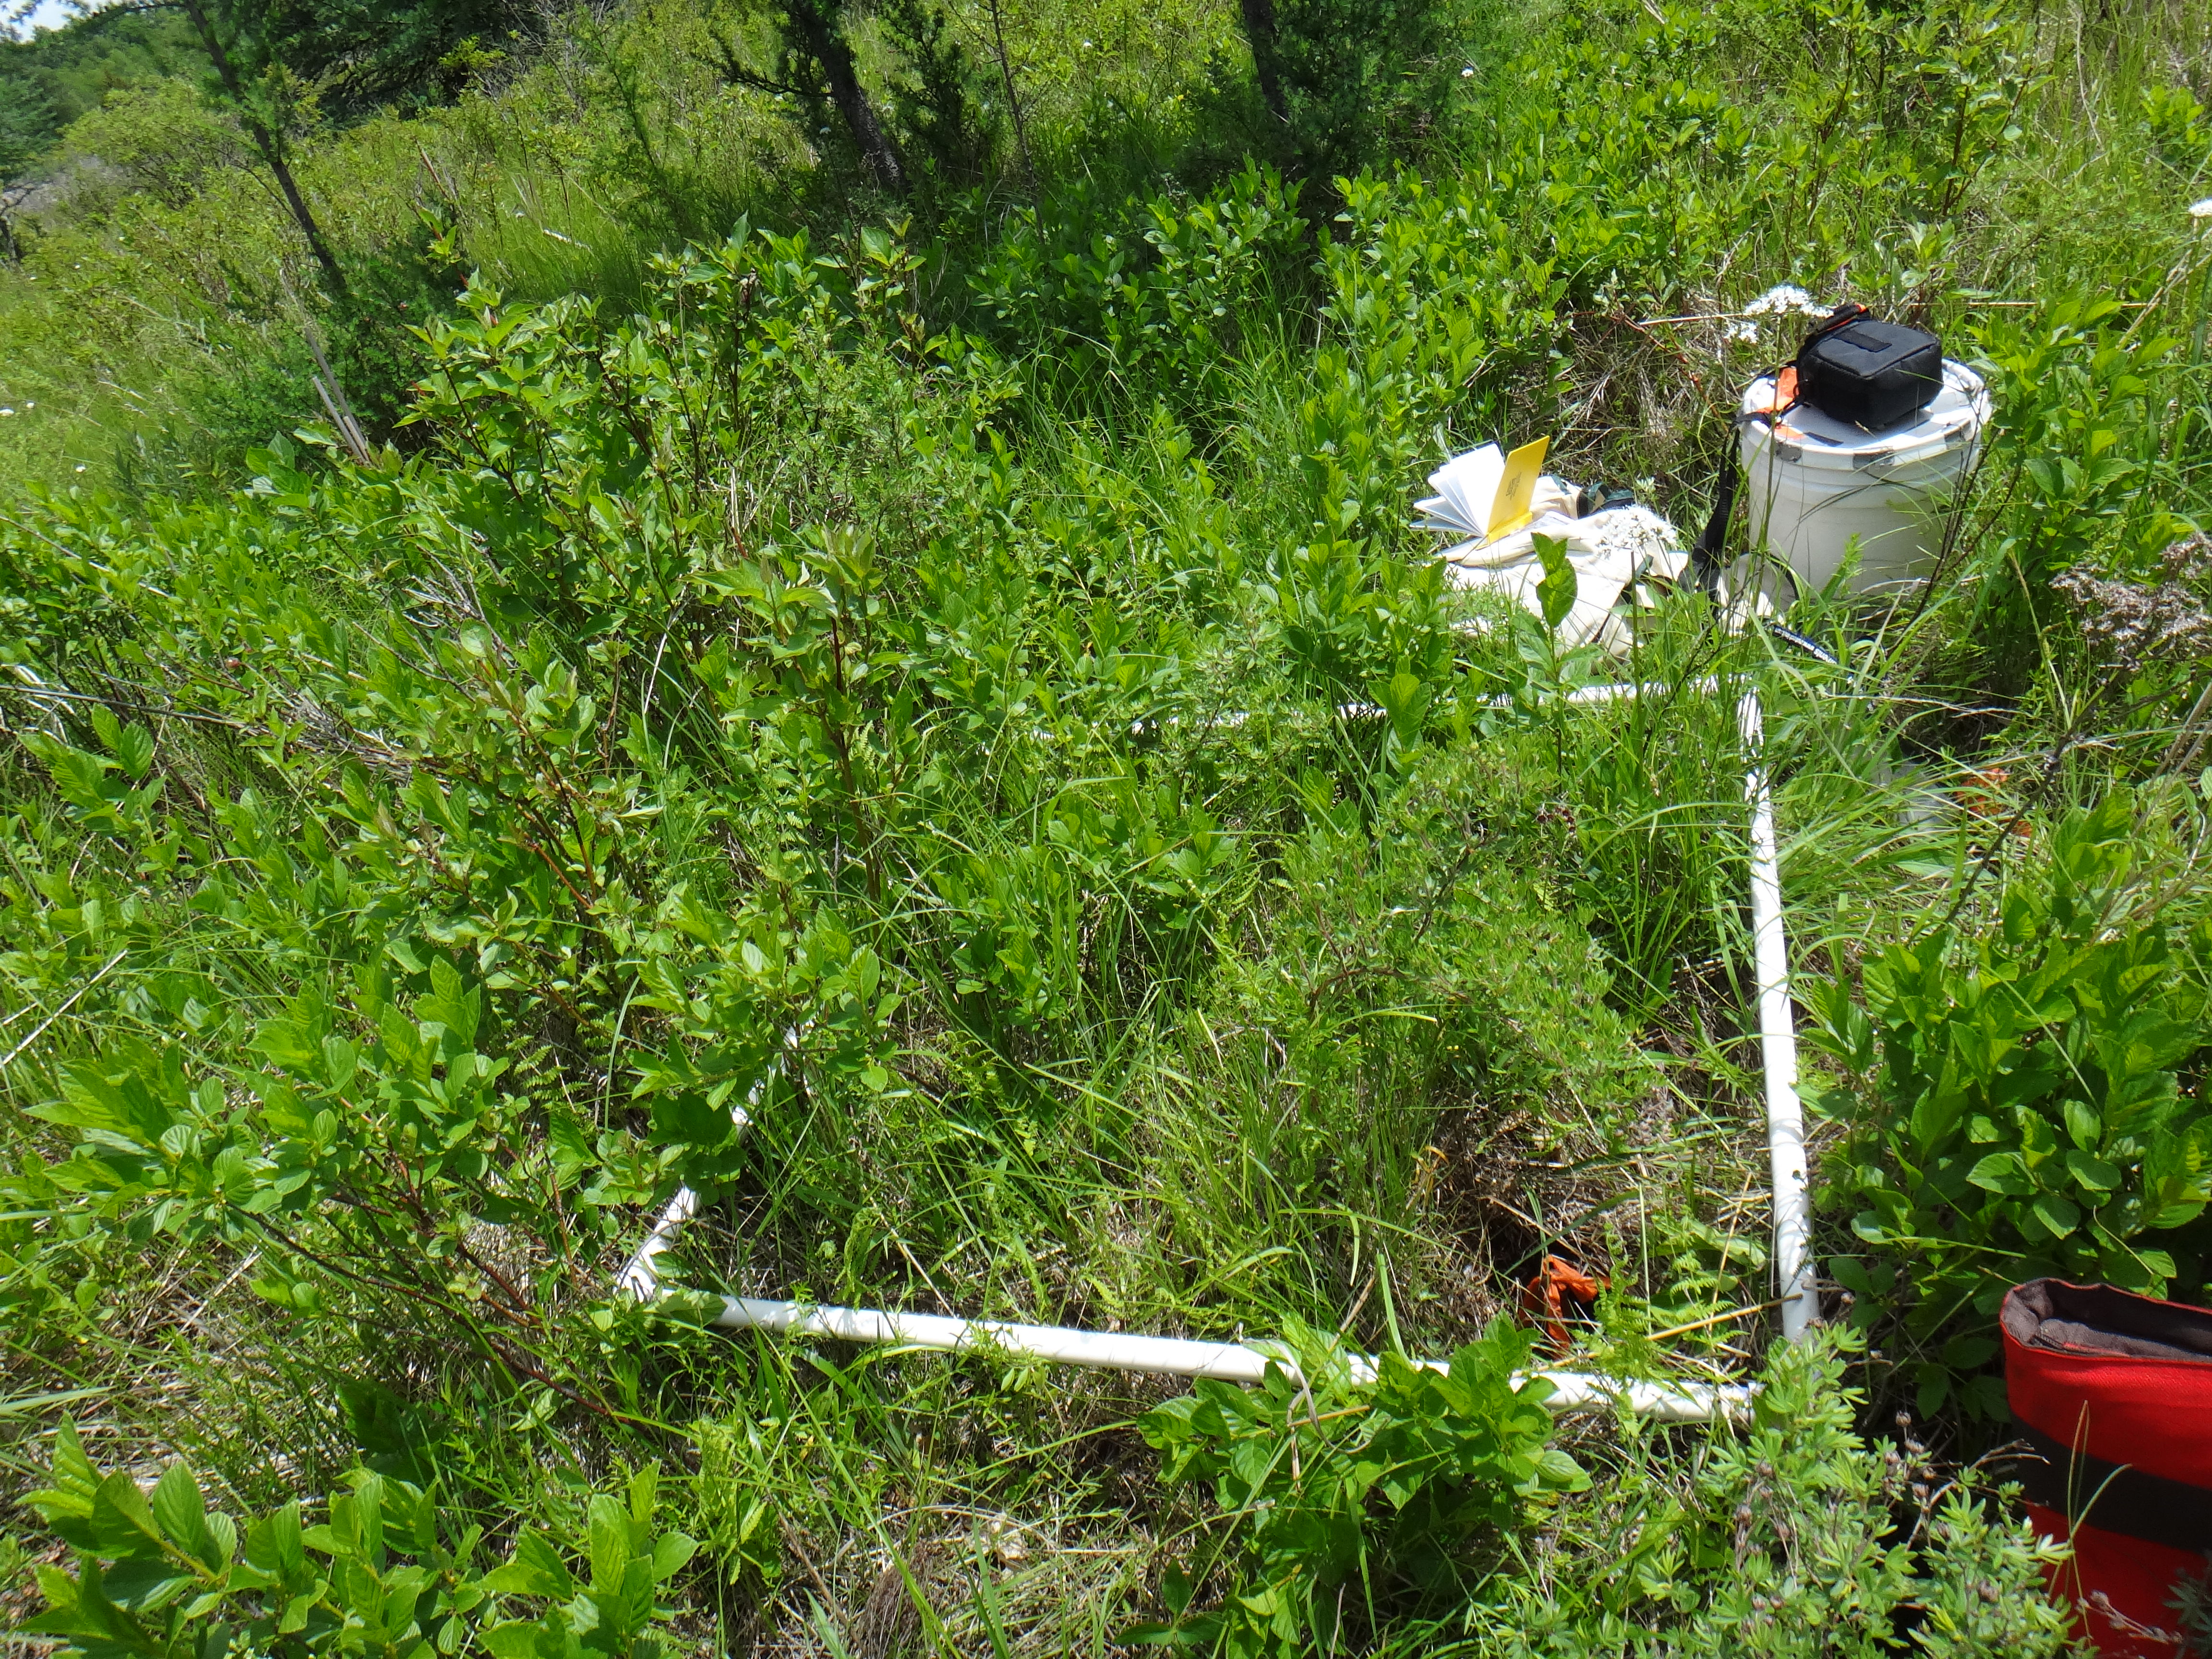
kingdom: Plantae
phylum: Tracheophyta
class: Liliopsida
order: Poales
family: Poaceae
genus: Andropogon
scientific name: Andropogon gerardi
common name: Big bluestem
